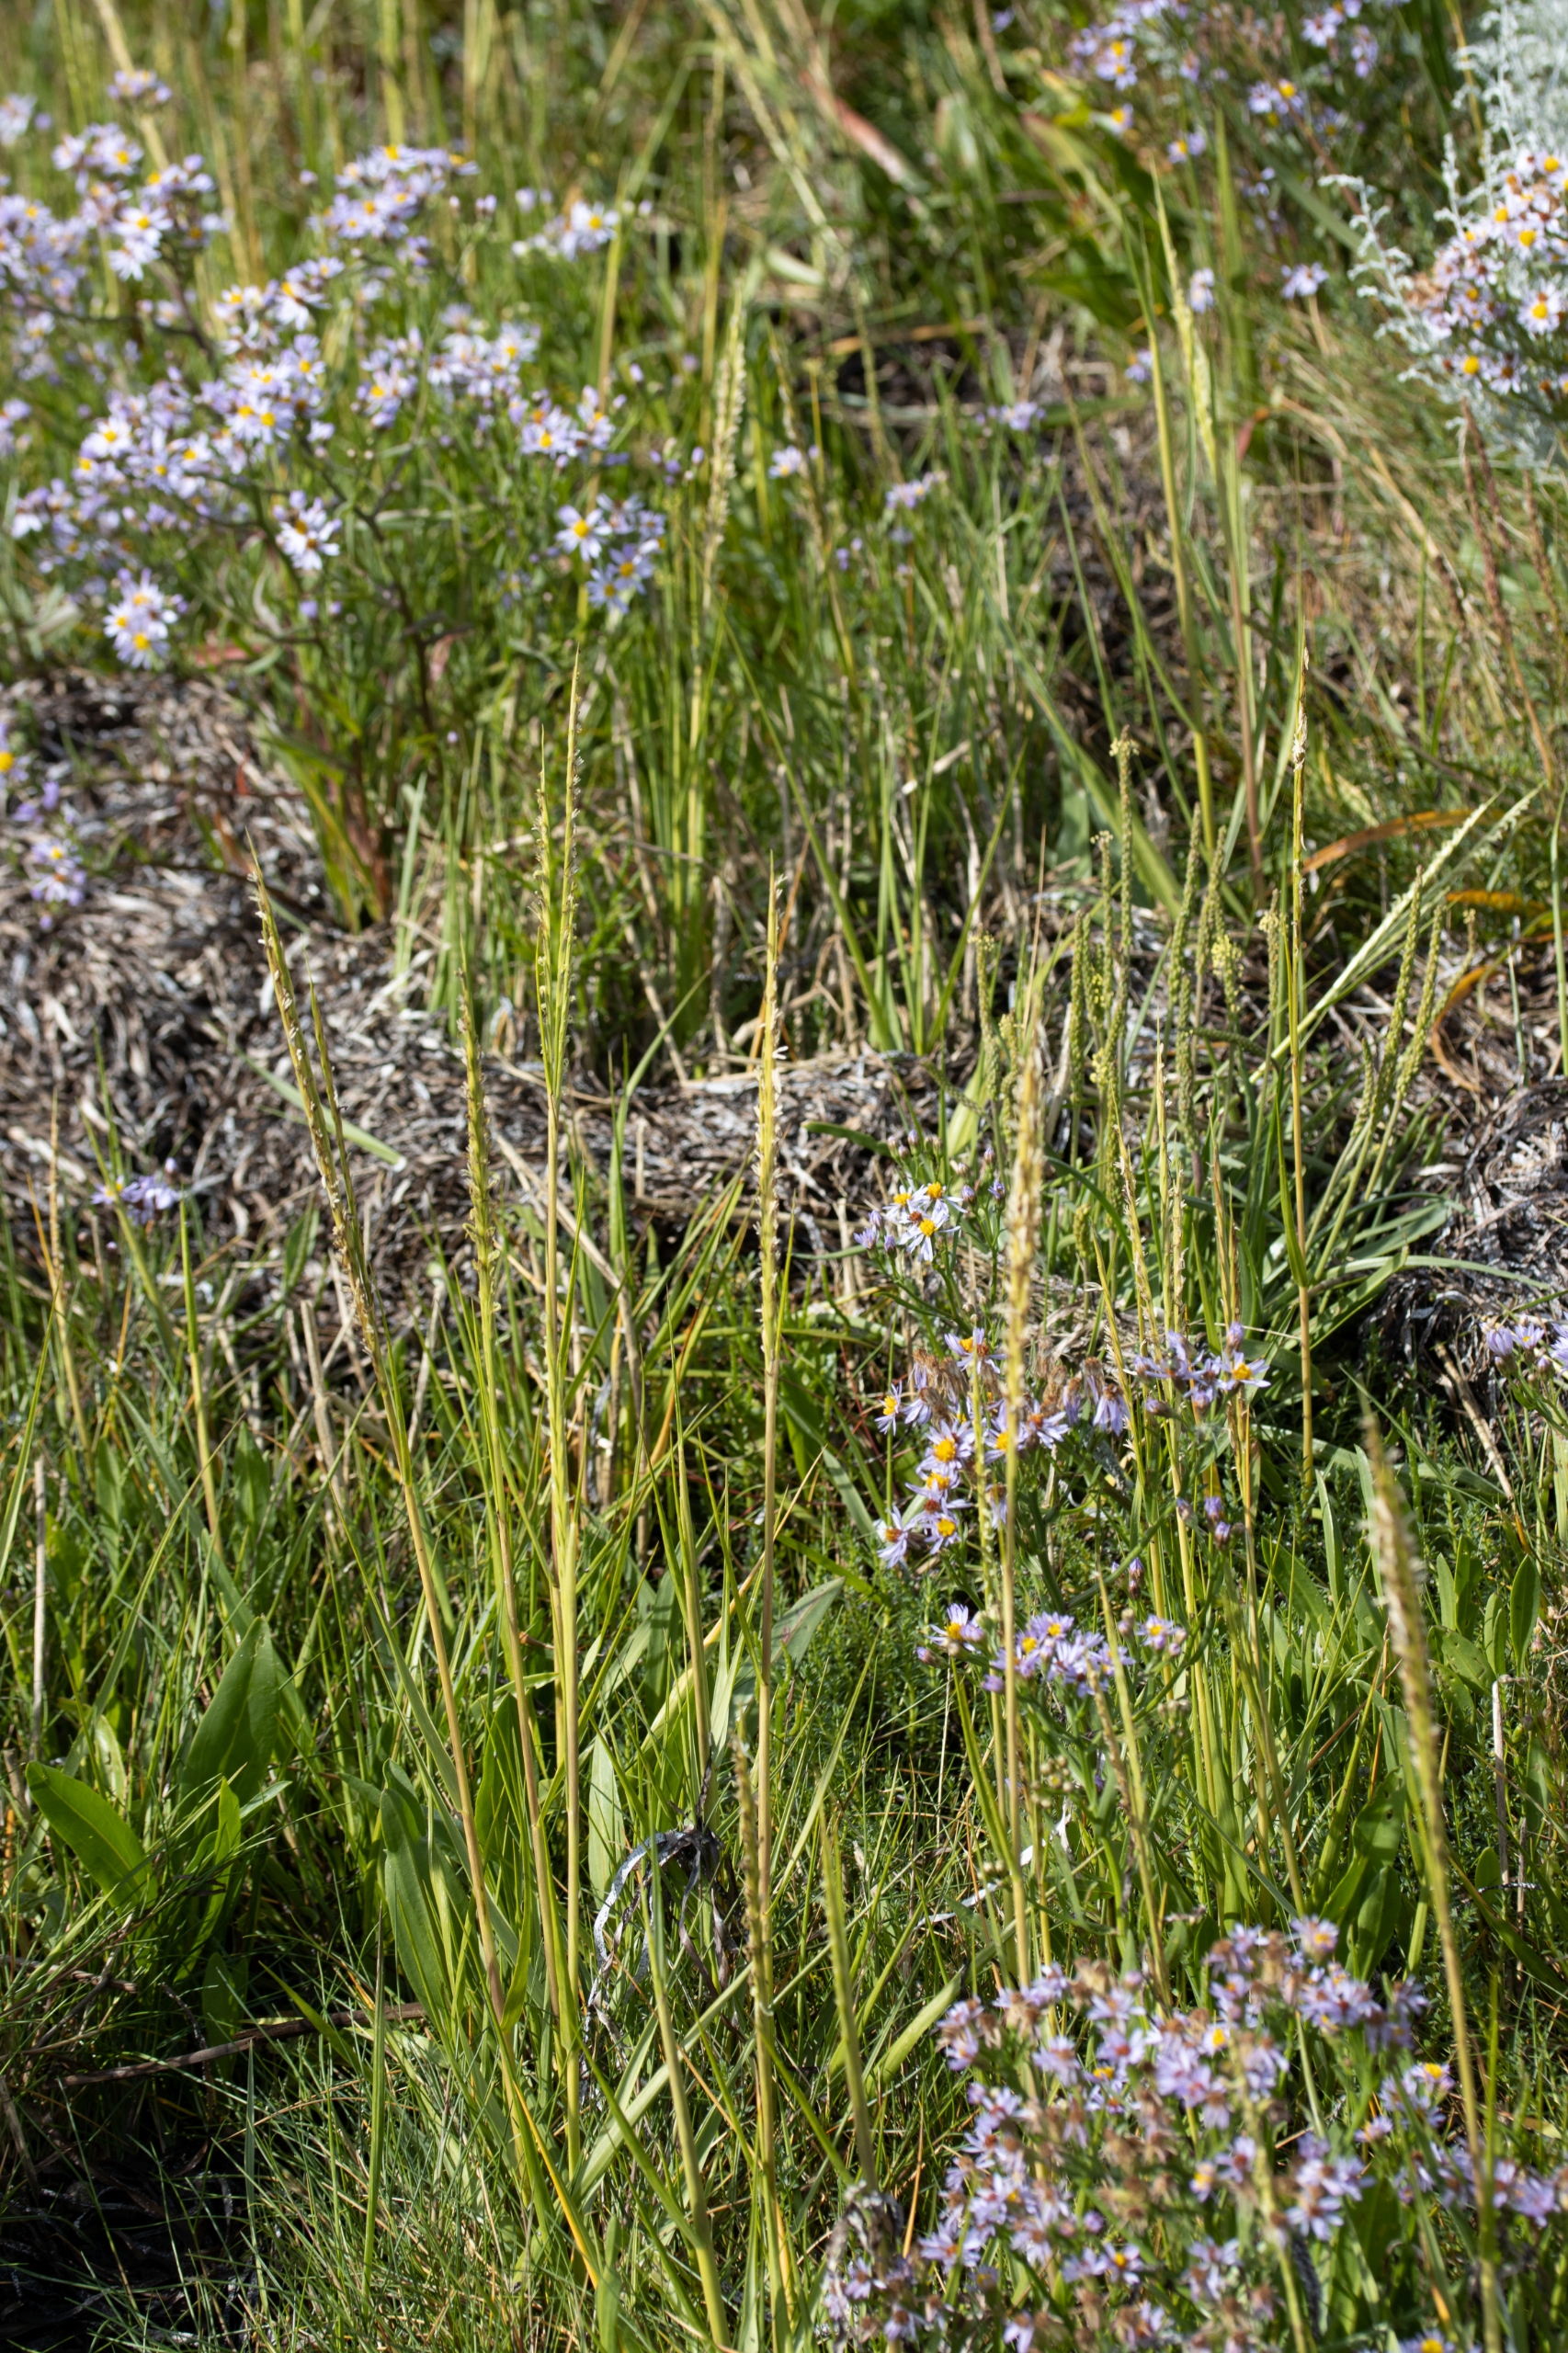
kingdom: Plantae
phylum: Tracheophyta
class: Liliopsida
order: Poales
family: Poaceae
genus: Sporobolus
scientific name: Sporobolus townsendii
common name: Hybrid-vadegræs
